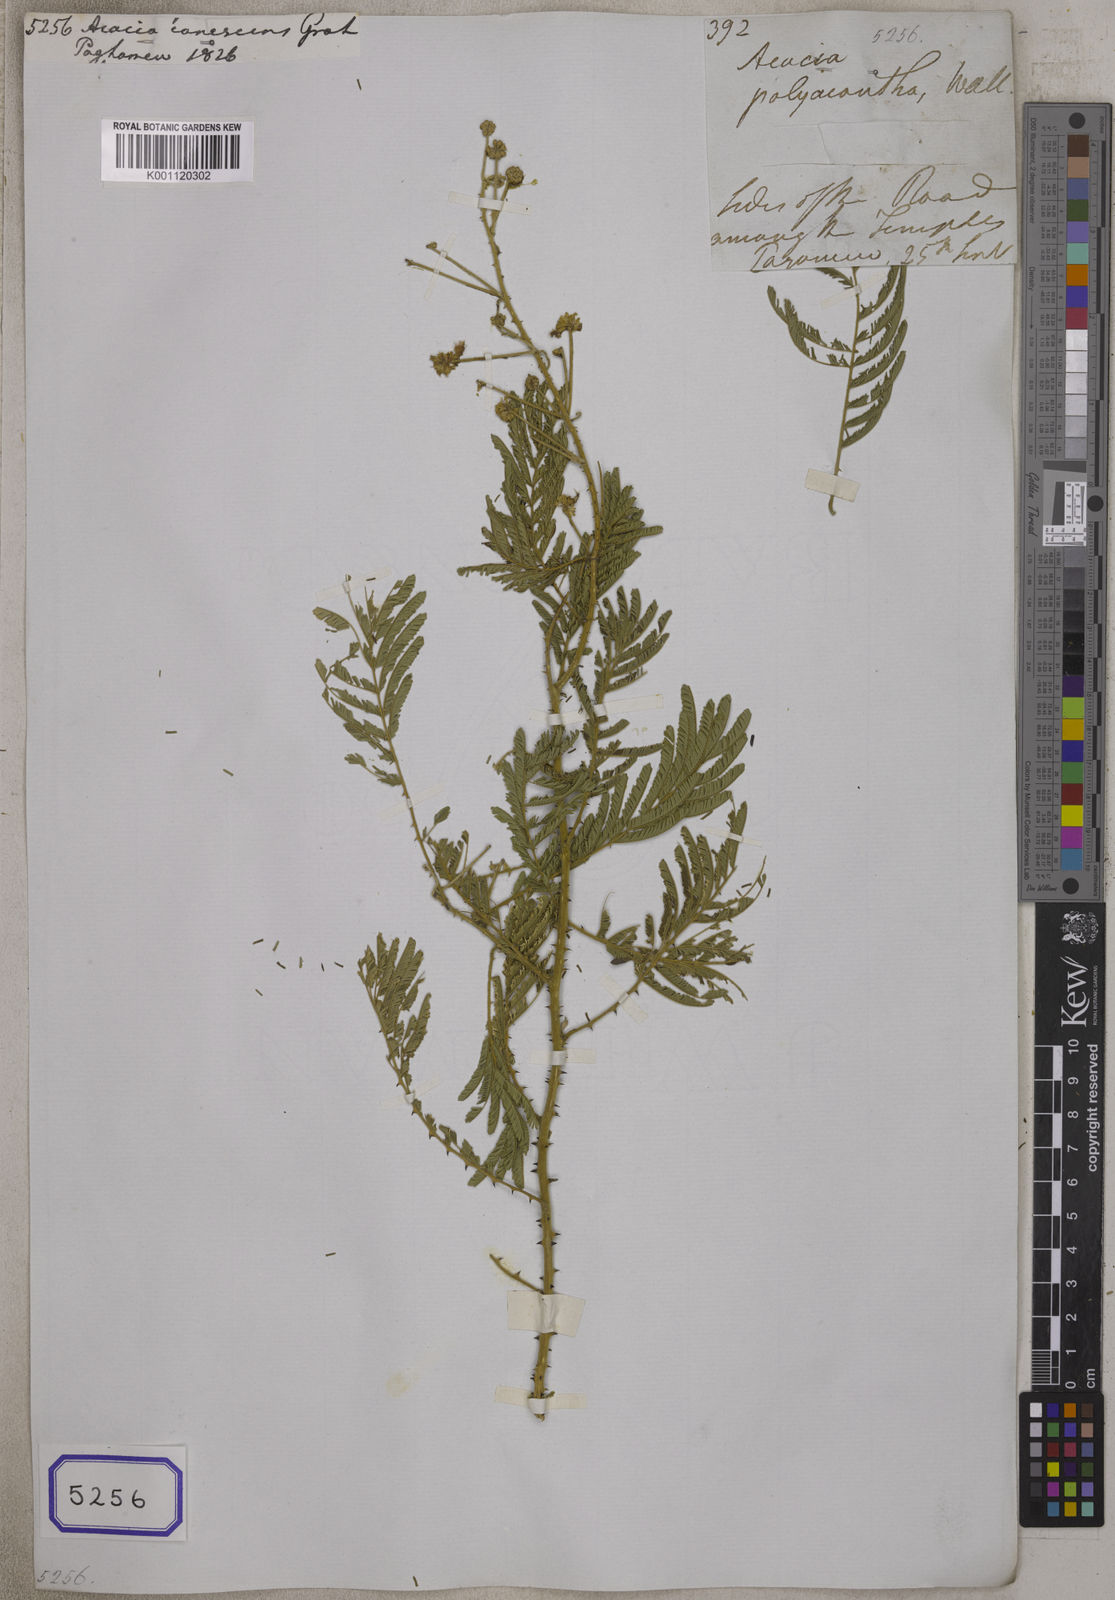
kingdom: Plantae
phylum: Tracheophyta
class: Magnoliopsida
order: Fabales
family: Fabaceae
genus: Acacia
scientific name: Acacia
